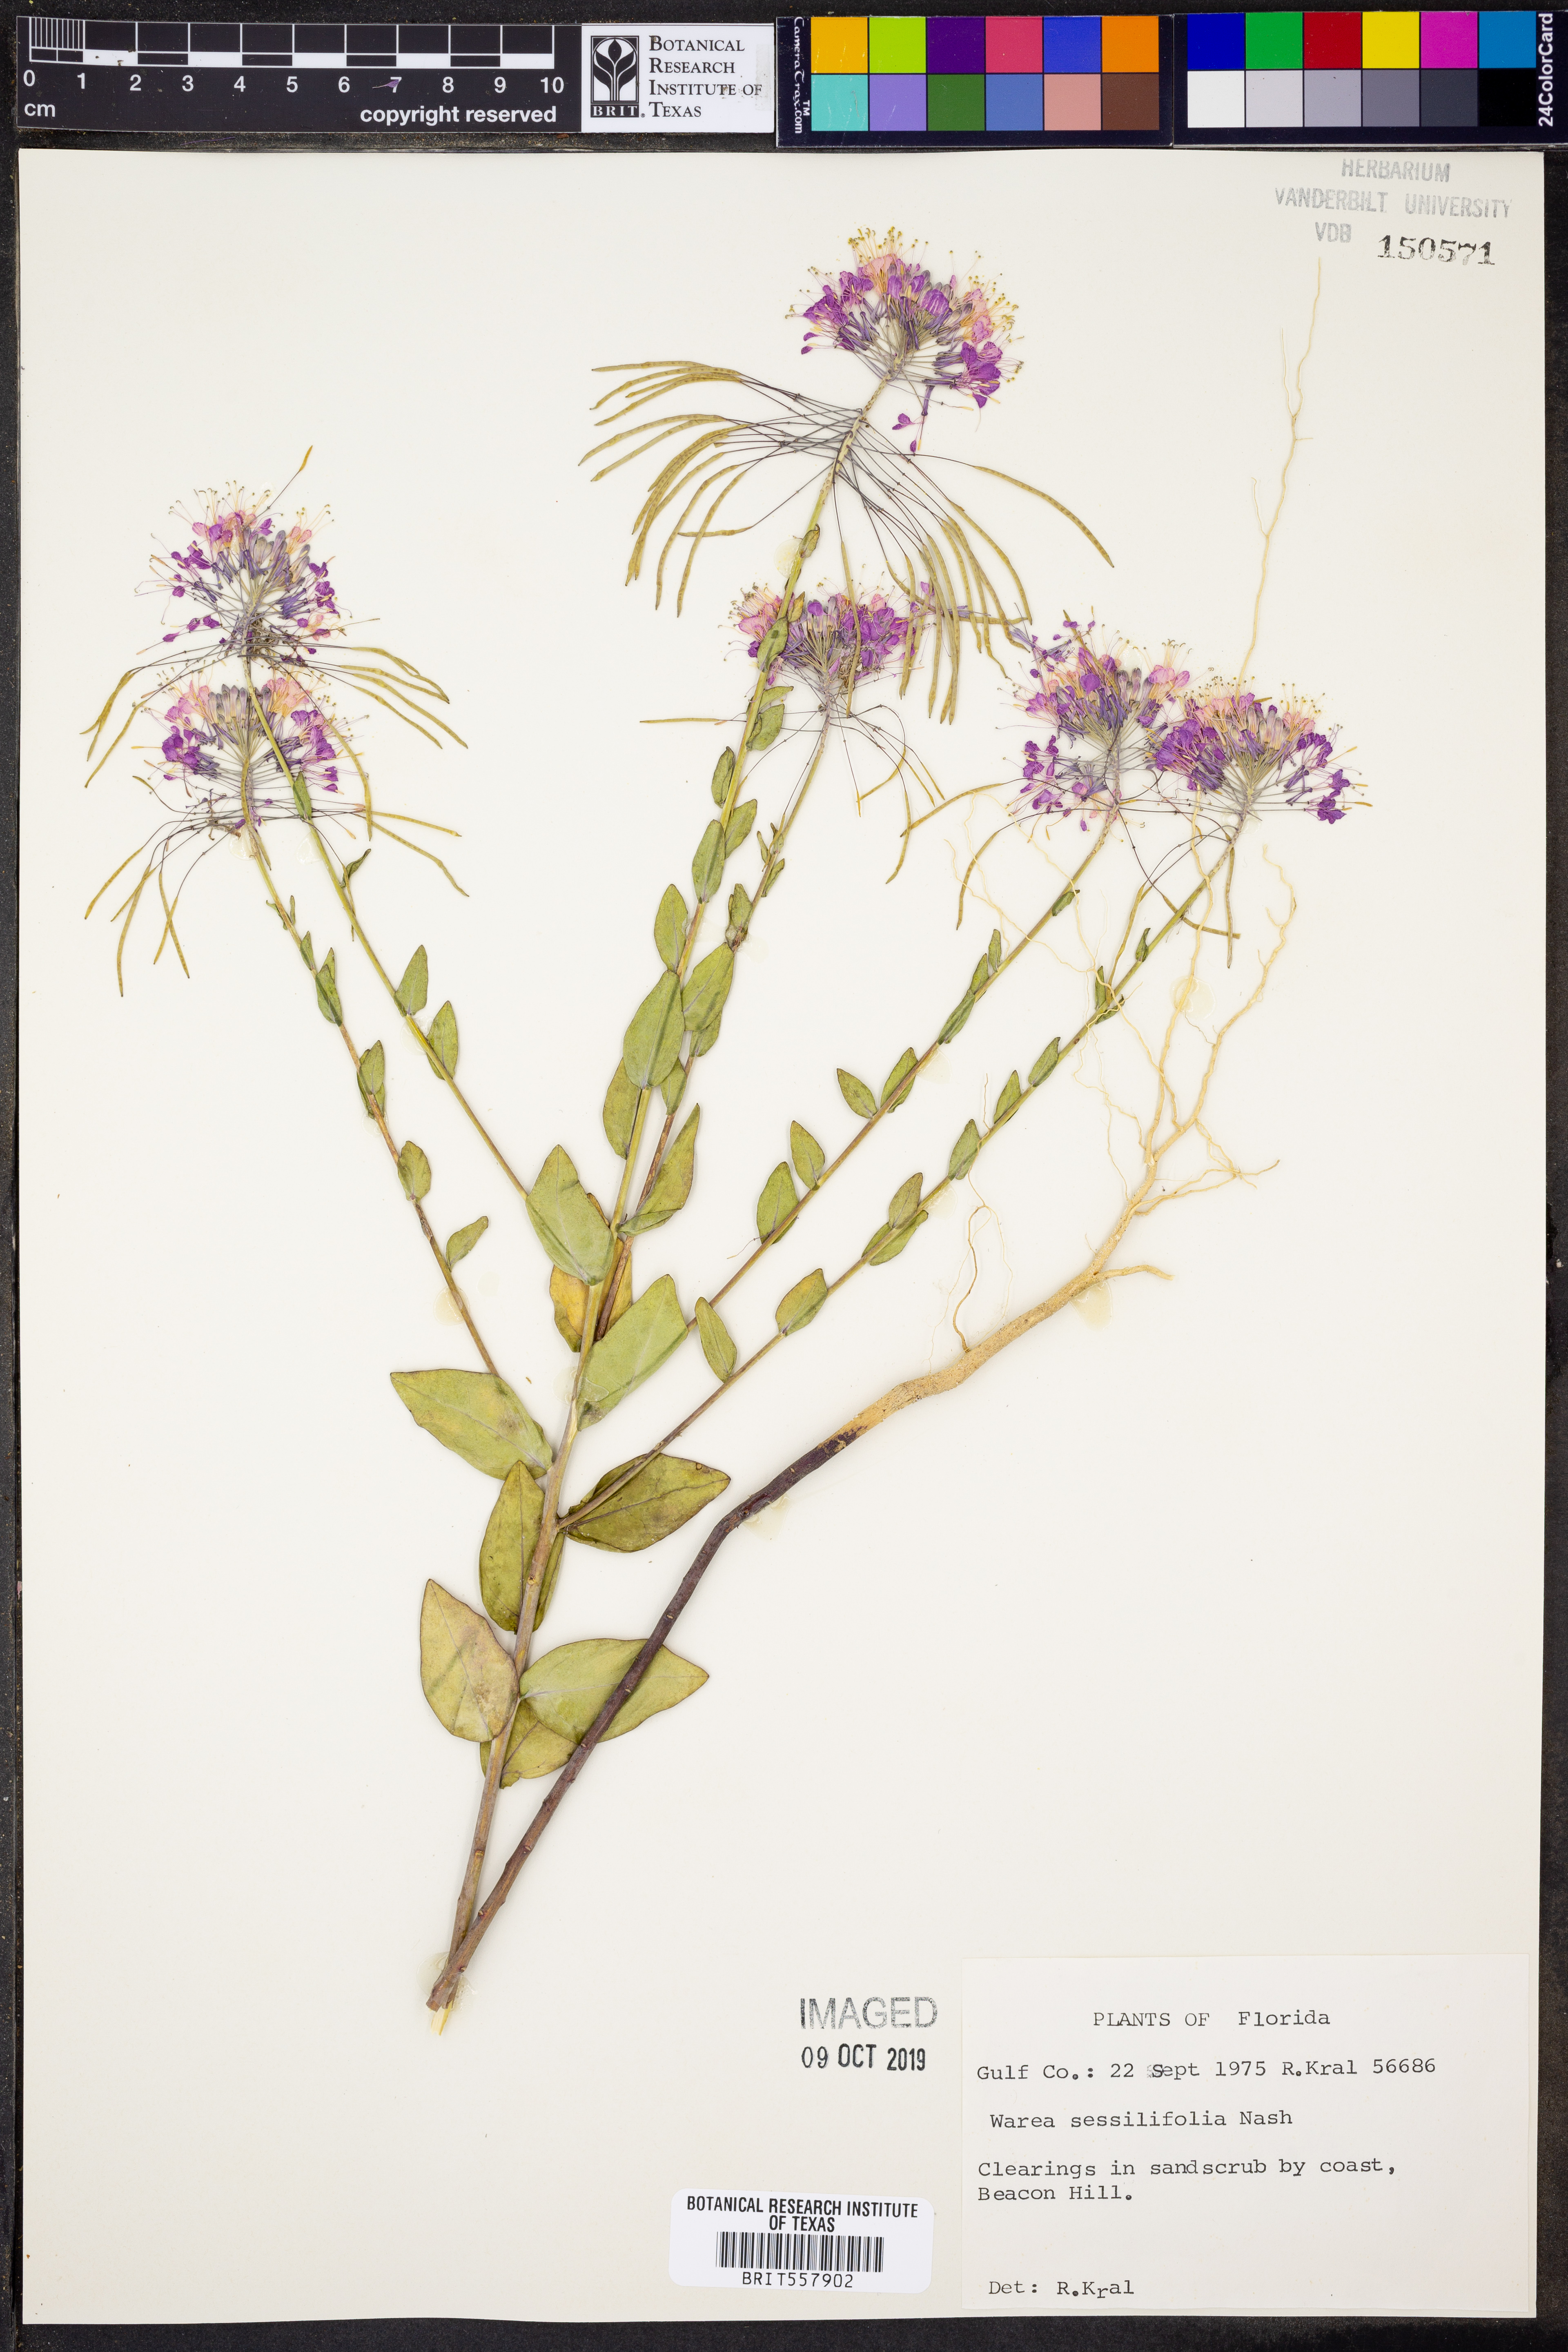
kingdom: Plantae
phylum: Tracheophyta
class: Magnoliopsida
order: Brassicales
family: Brassicaceae
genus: Warea
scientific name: Warea sessilifolia
